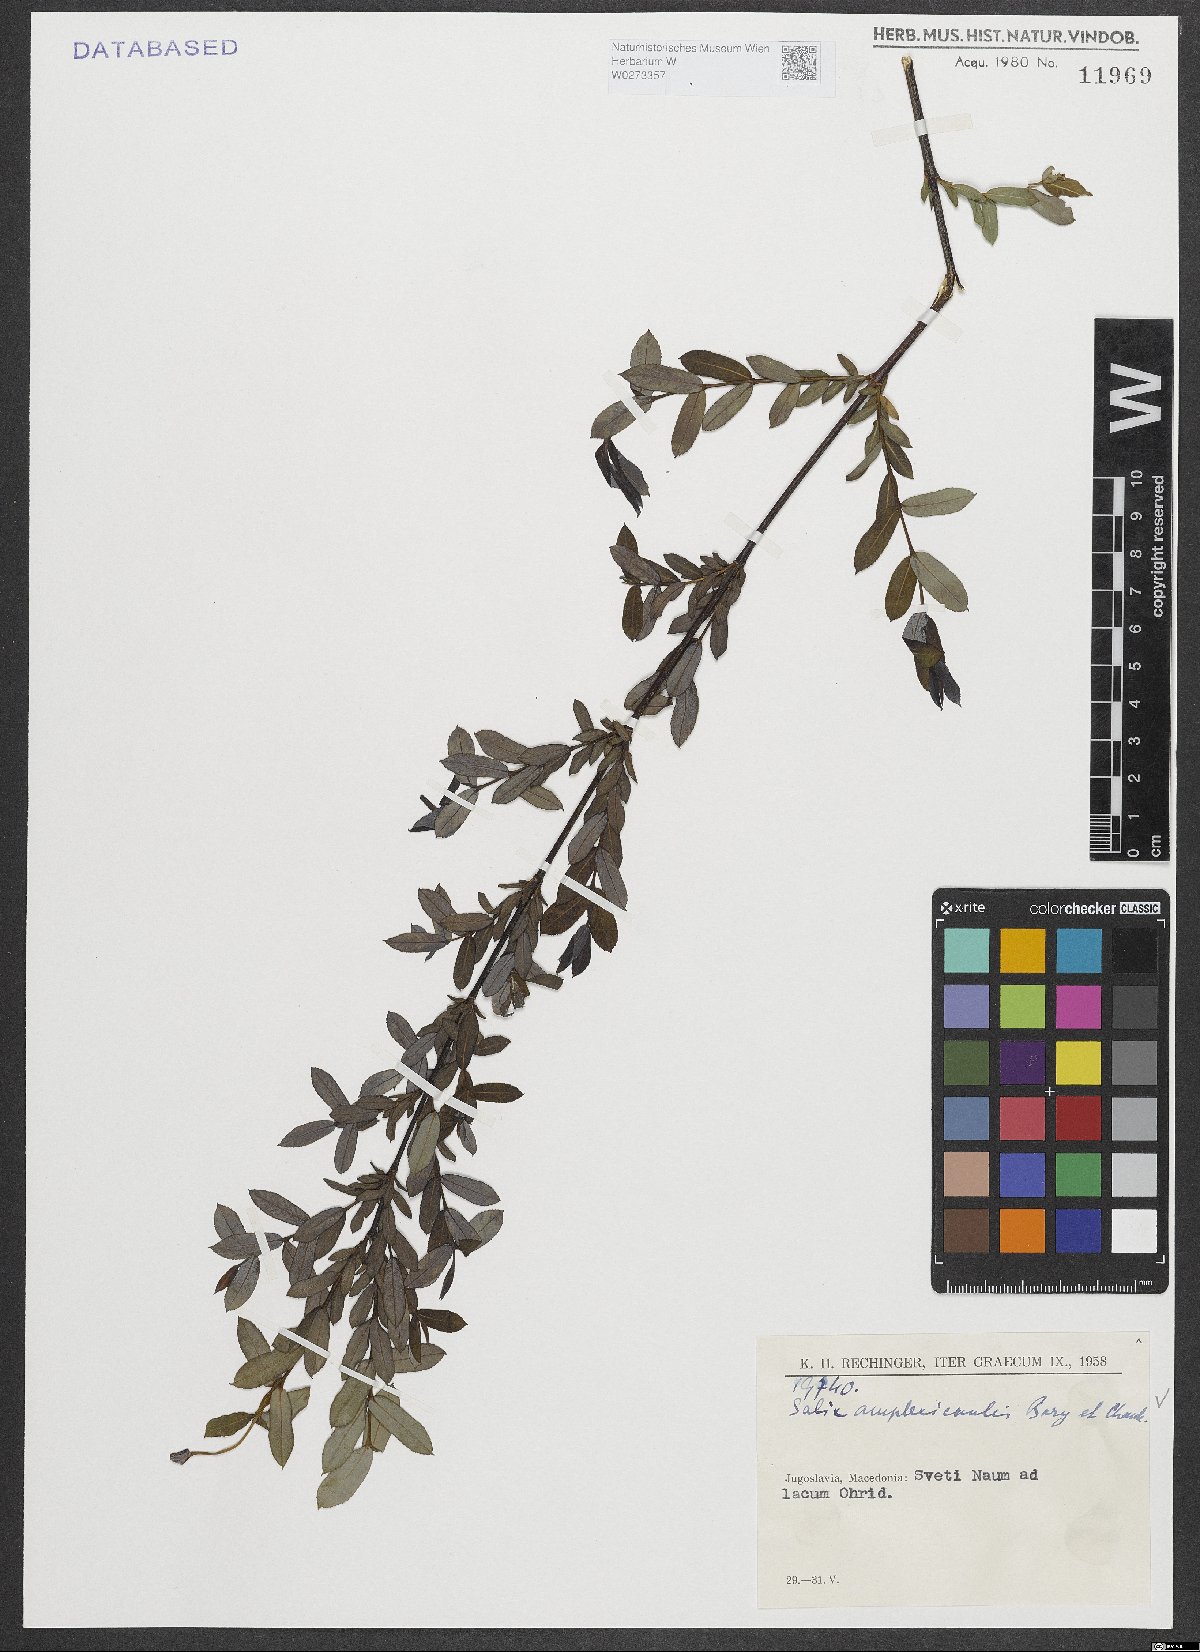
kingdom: Plantae
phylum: Tracheophyta
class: Magnoliopsida
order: Malpighiales
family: Salicaceae
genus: Salix
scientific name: Salix amplexicaulis
